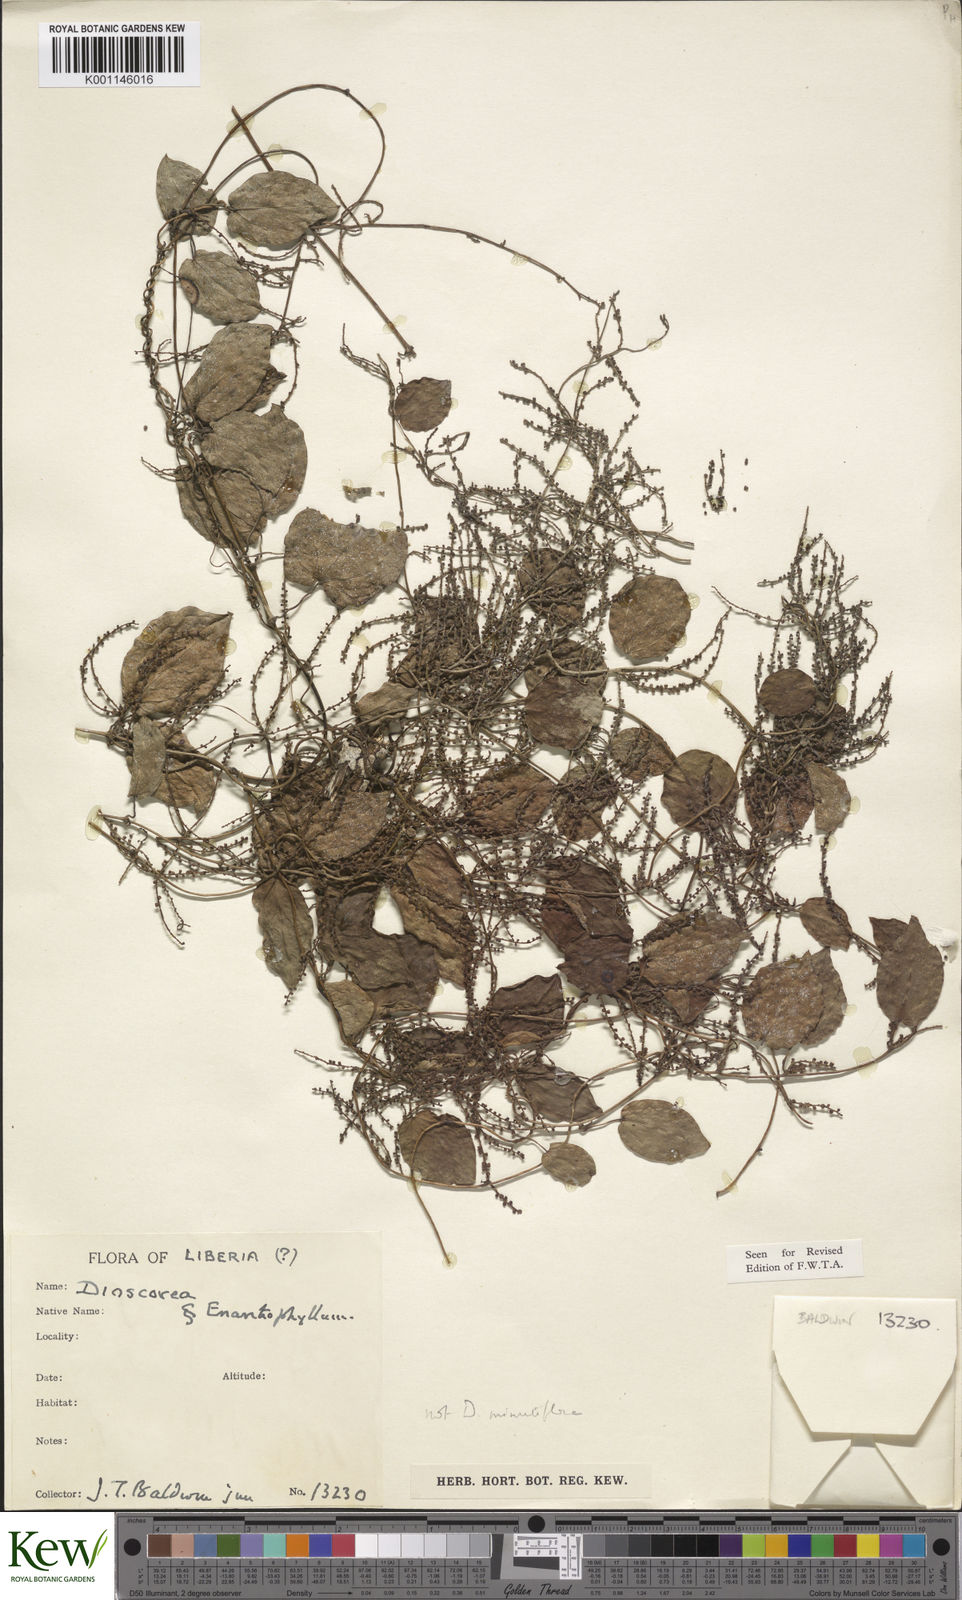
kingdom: Plantae
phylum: Tracheophyta
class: Liliopsida
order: Dioscoreales
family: Dioscoreaceae
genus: Dioscorea
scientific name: Dioscorea minutiflora
